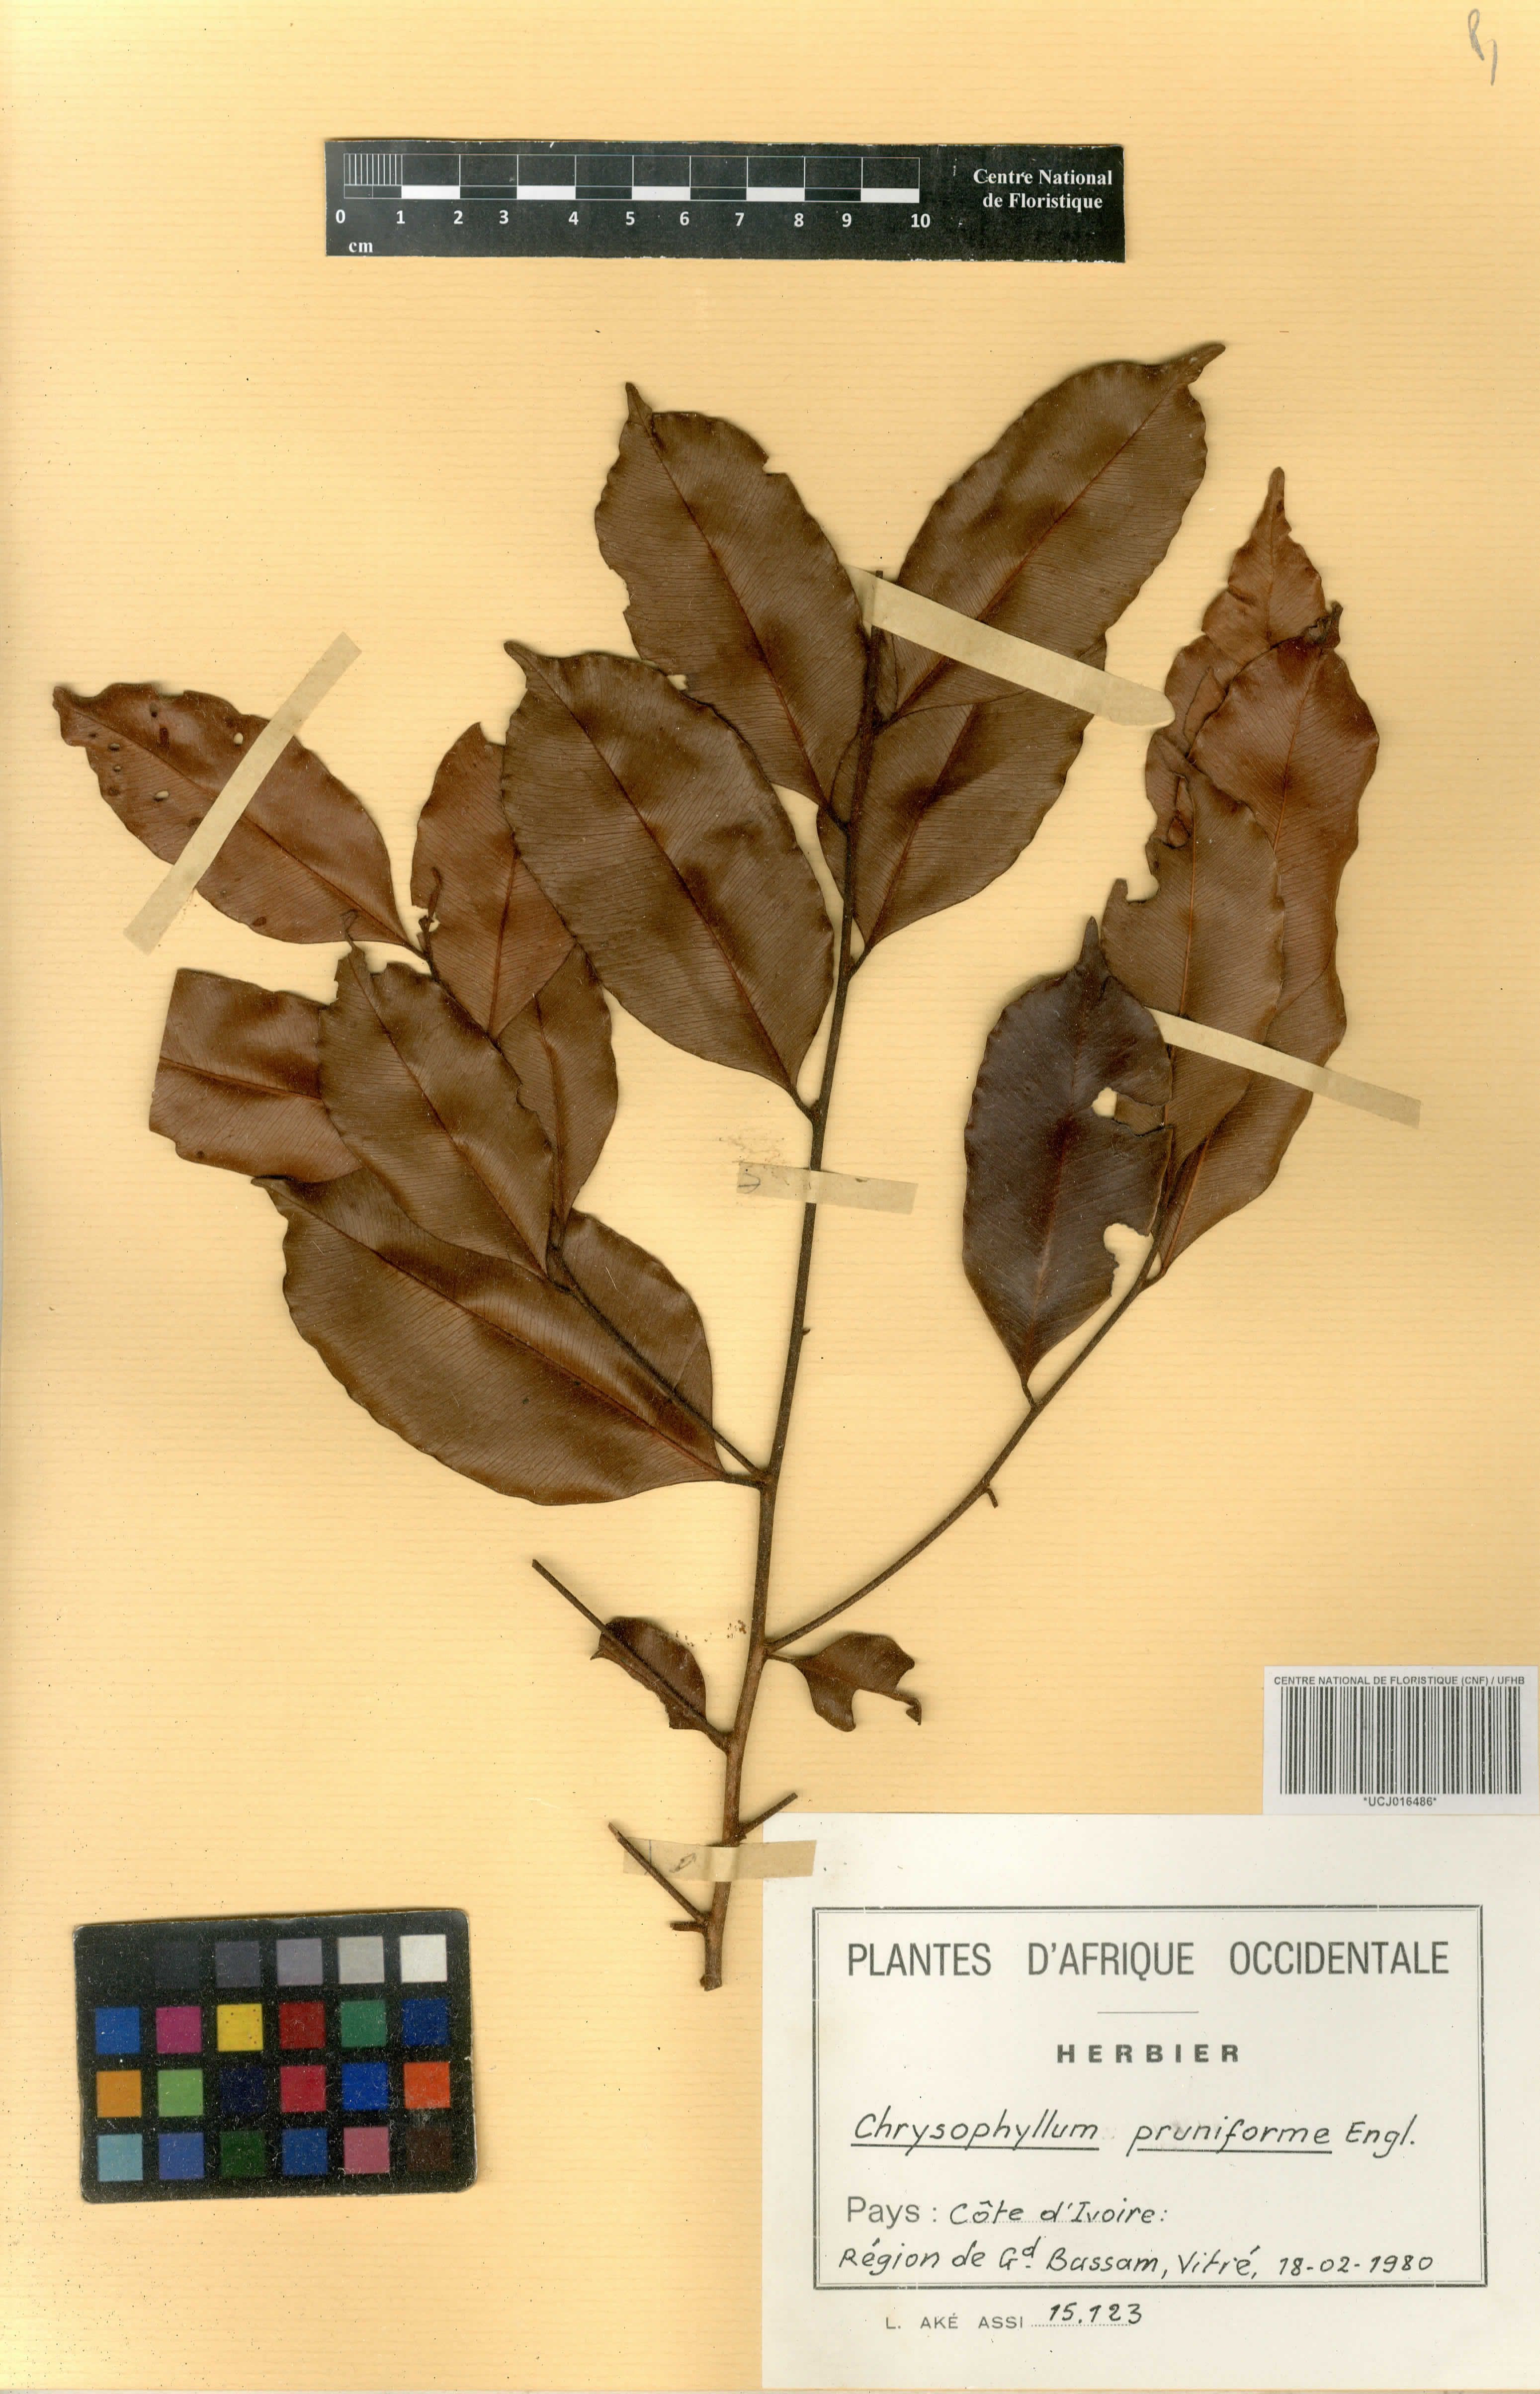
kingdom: Plantae
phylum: Tracheophyta
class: Magnoliopsida
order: Ericales
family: Sapotaceae
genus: Donella
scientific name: Donella pruniformis
